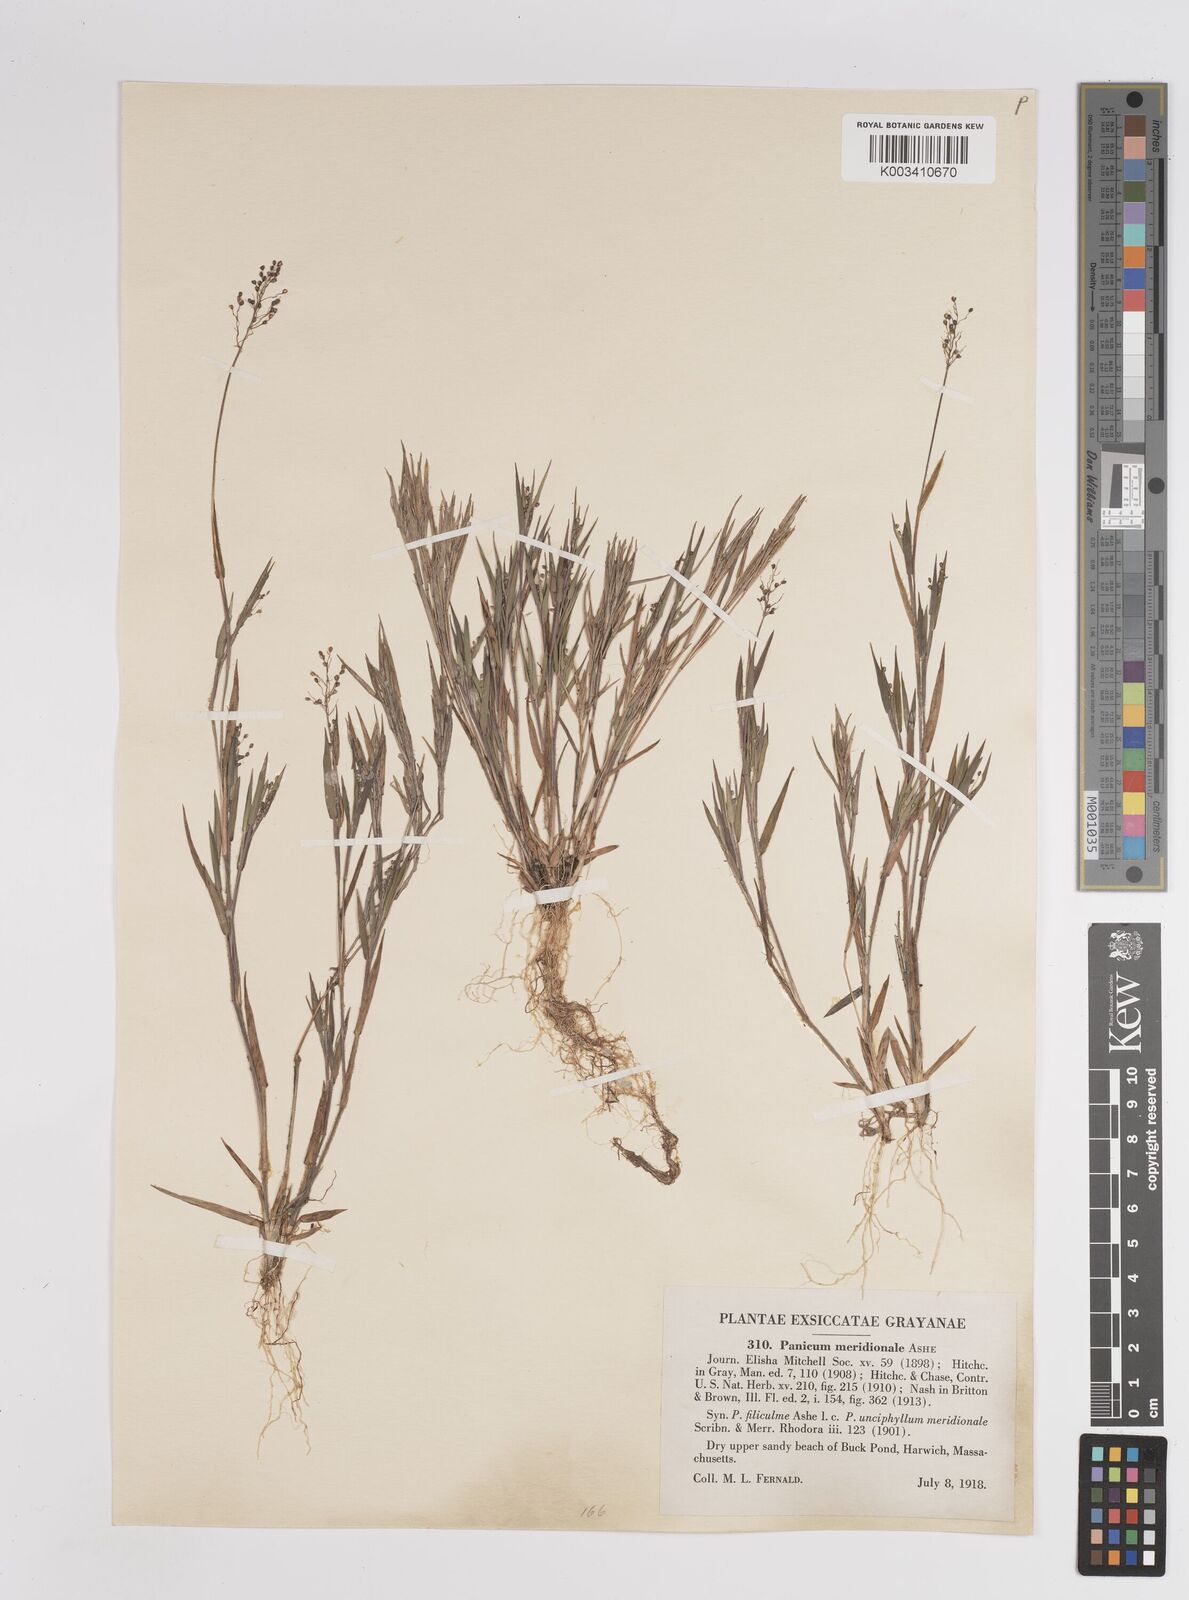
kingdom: Plantae
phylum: Tracheophyta
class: Liliopsida
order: Poales
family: Poaceae
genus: Dichanthelium
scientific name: Dichanthelium meridionale
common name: Mat panicgrass
